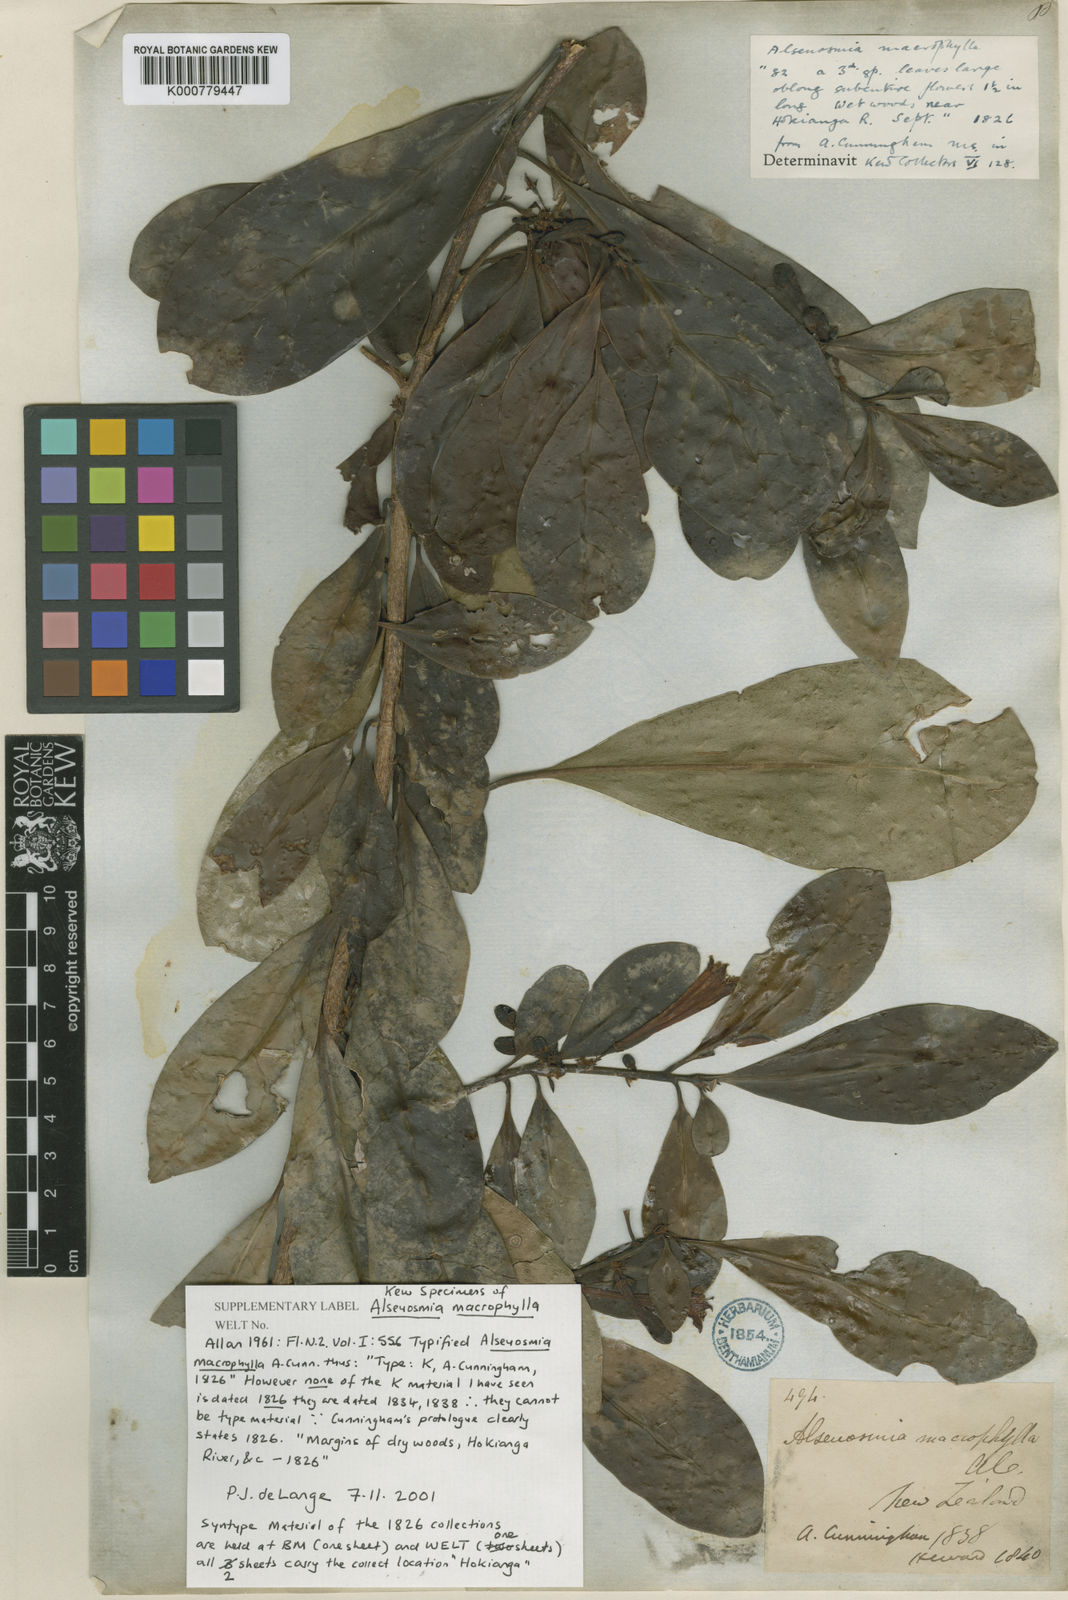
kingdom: Plantae
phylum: Tracheophyta
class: Magnoliopsida
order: Asterales
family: Alseuosmiaceae
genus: Alseuosmia
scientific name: Alseuosmia macrophylla
